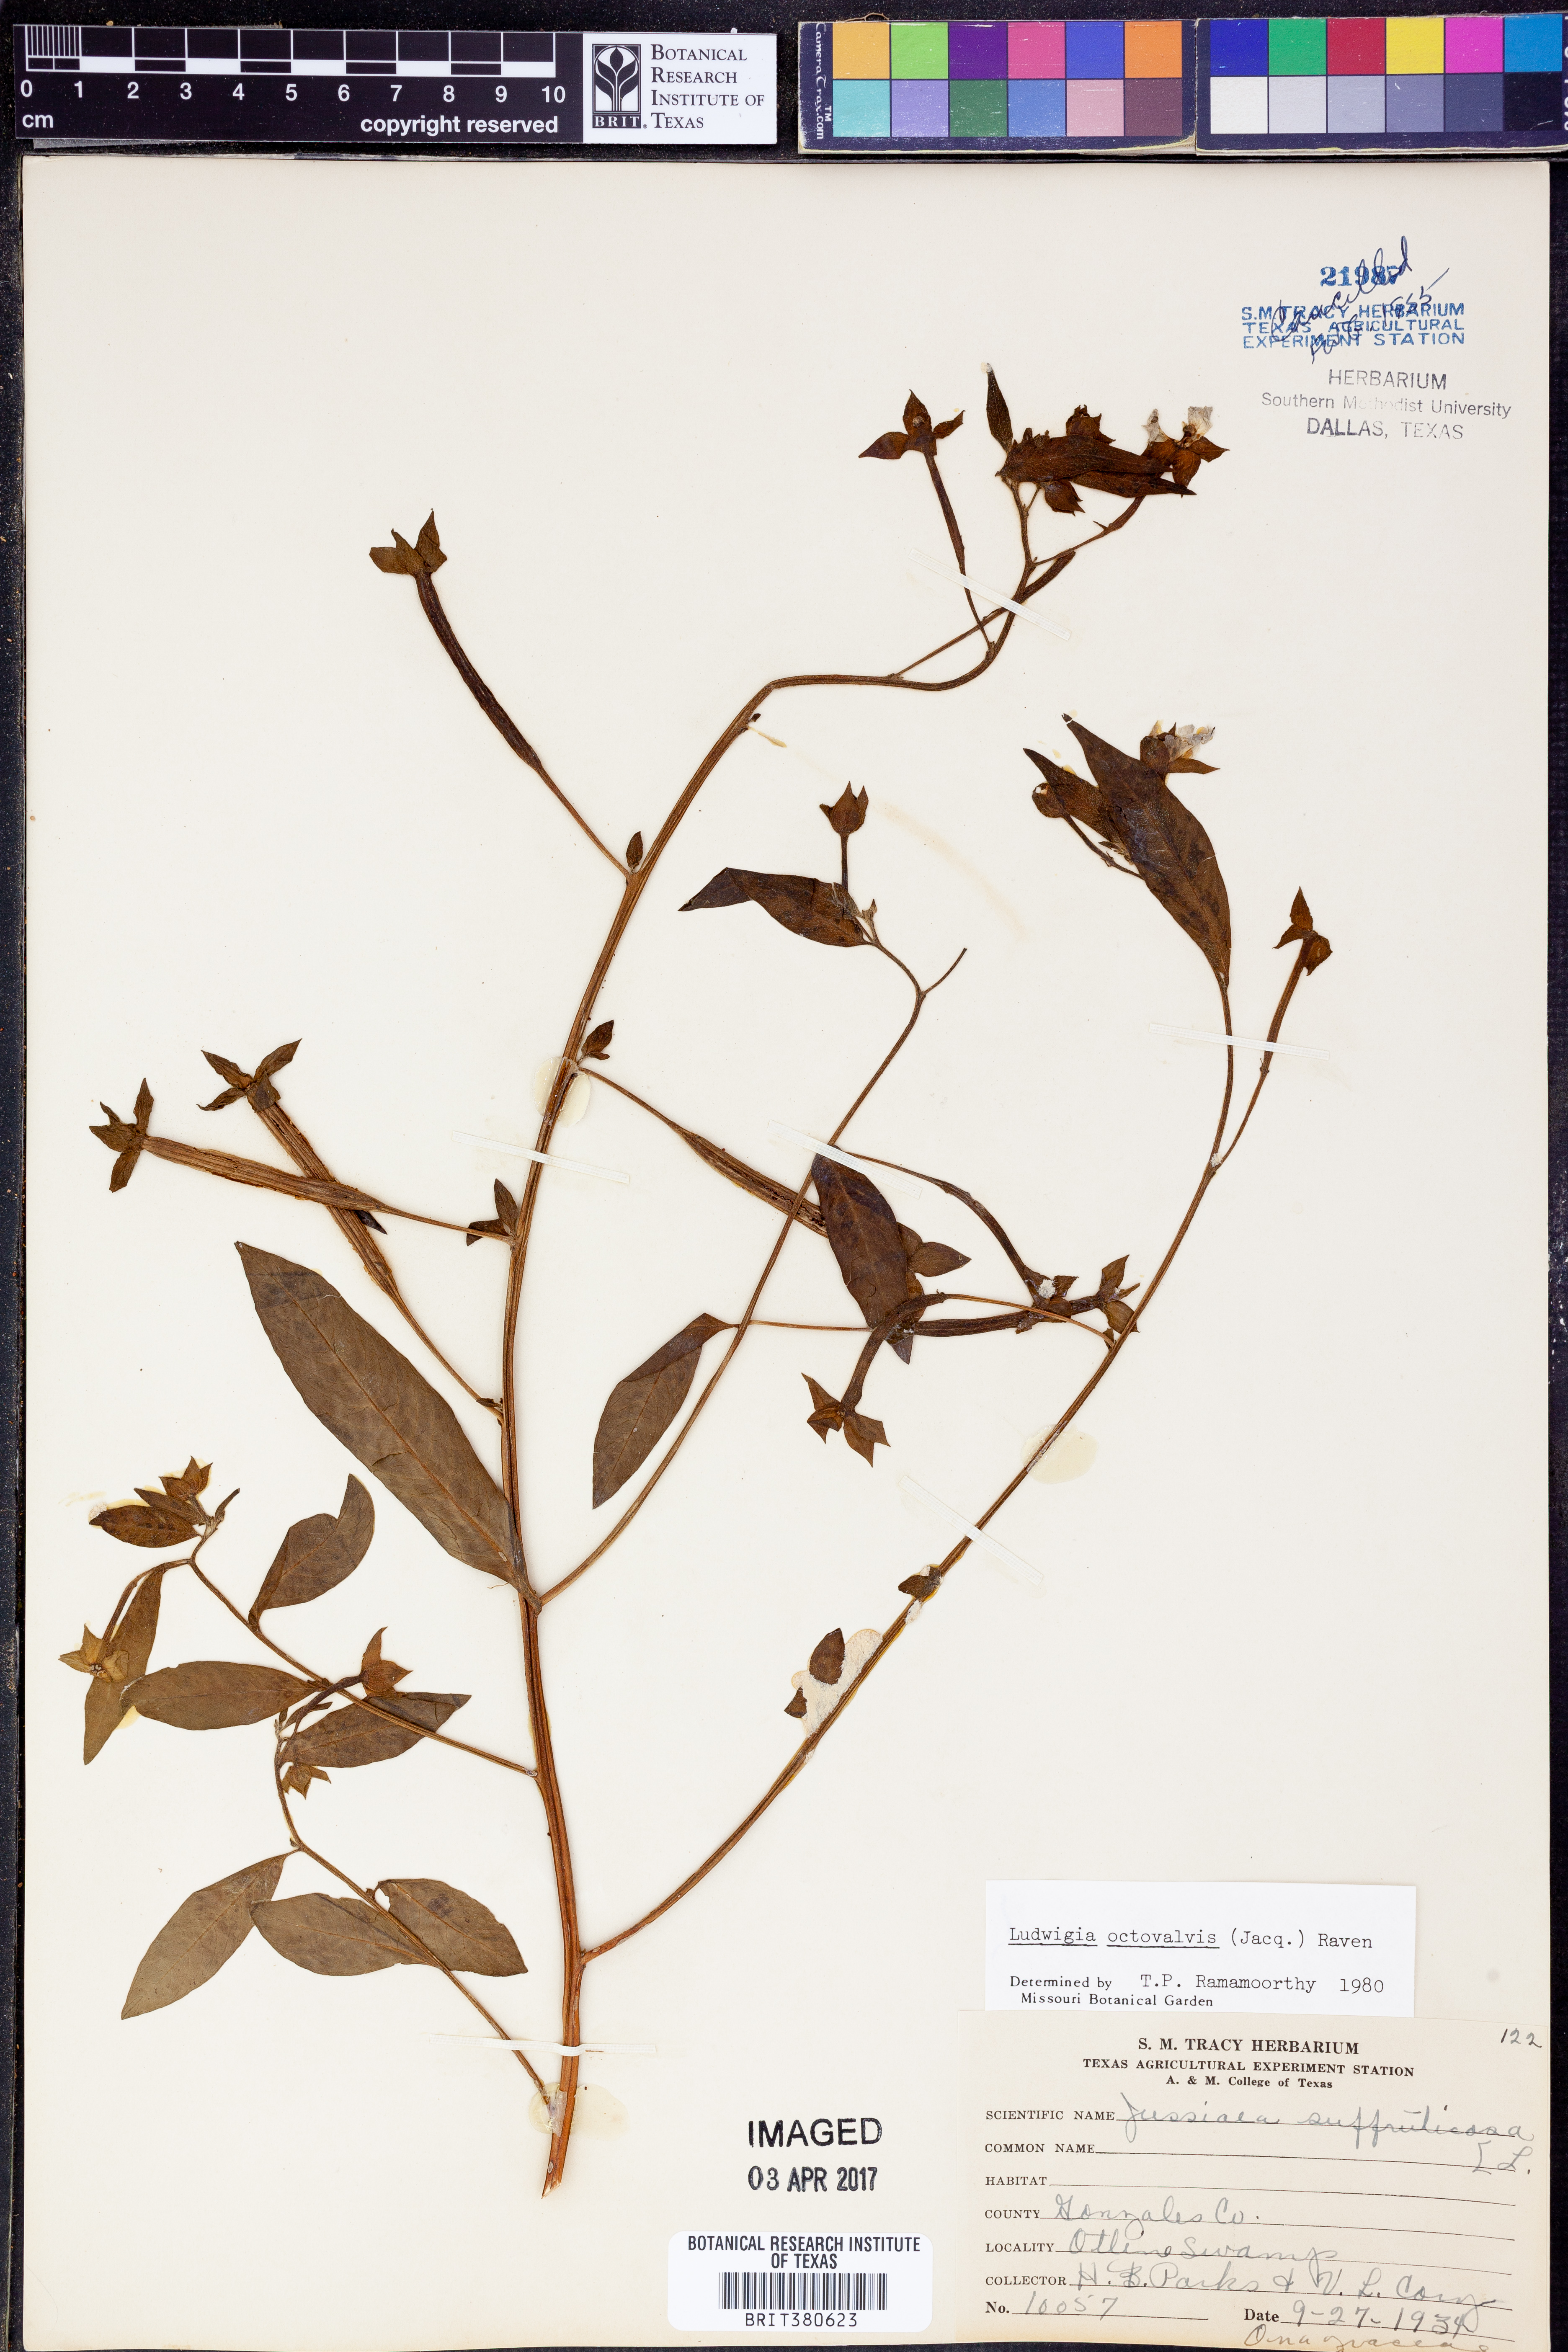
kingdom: Plantae
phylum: Tracheophyta
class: Magnoliopsida
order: Myrtales
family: Onagraceae
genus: Ludwigia
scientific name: Ludwigia octovalvis
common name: Water-primrose
